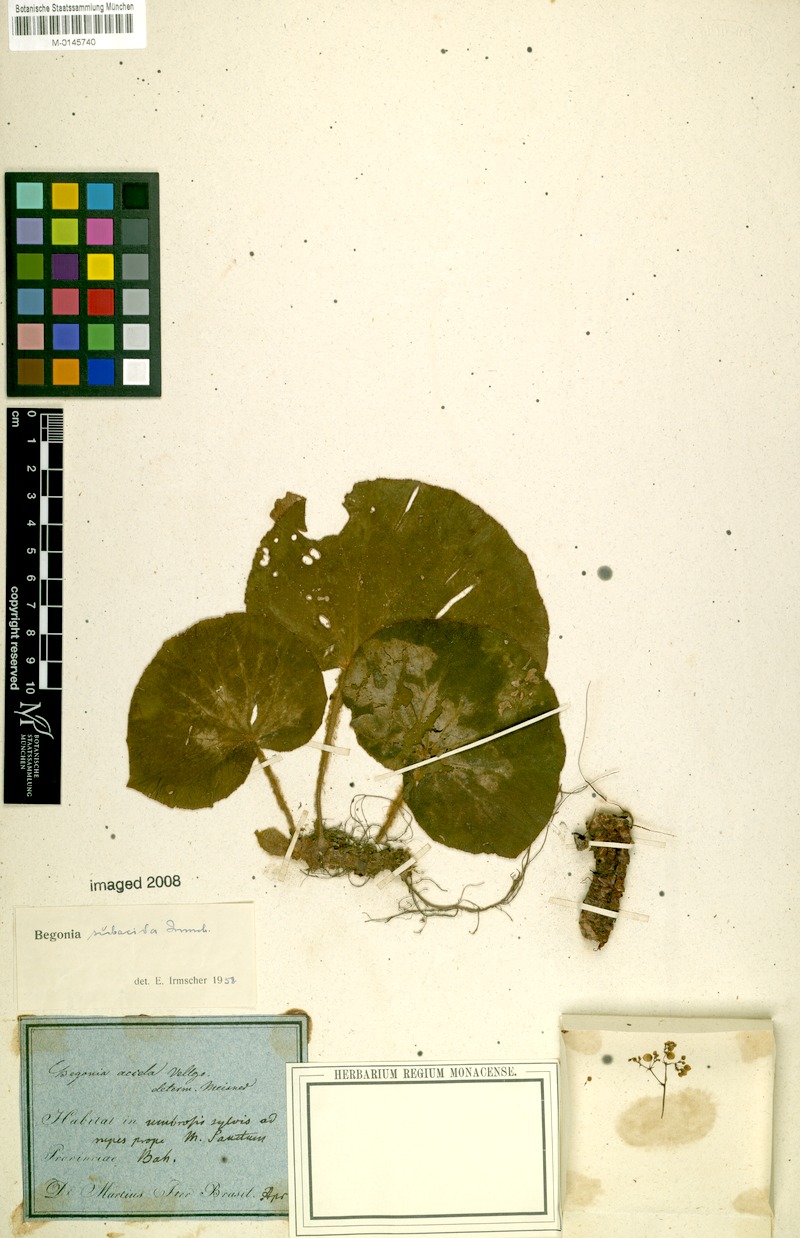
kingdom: Plantae
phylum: Tracheophyta
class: Magnoliopsida
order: Cucurbitales
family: Begoniaceae
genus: Begonia
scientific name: Begonia subacida
